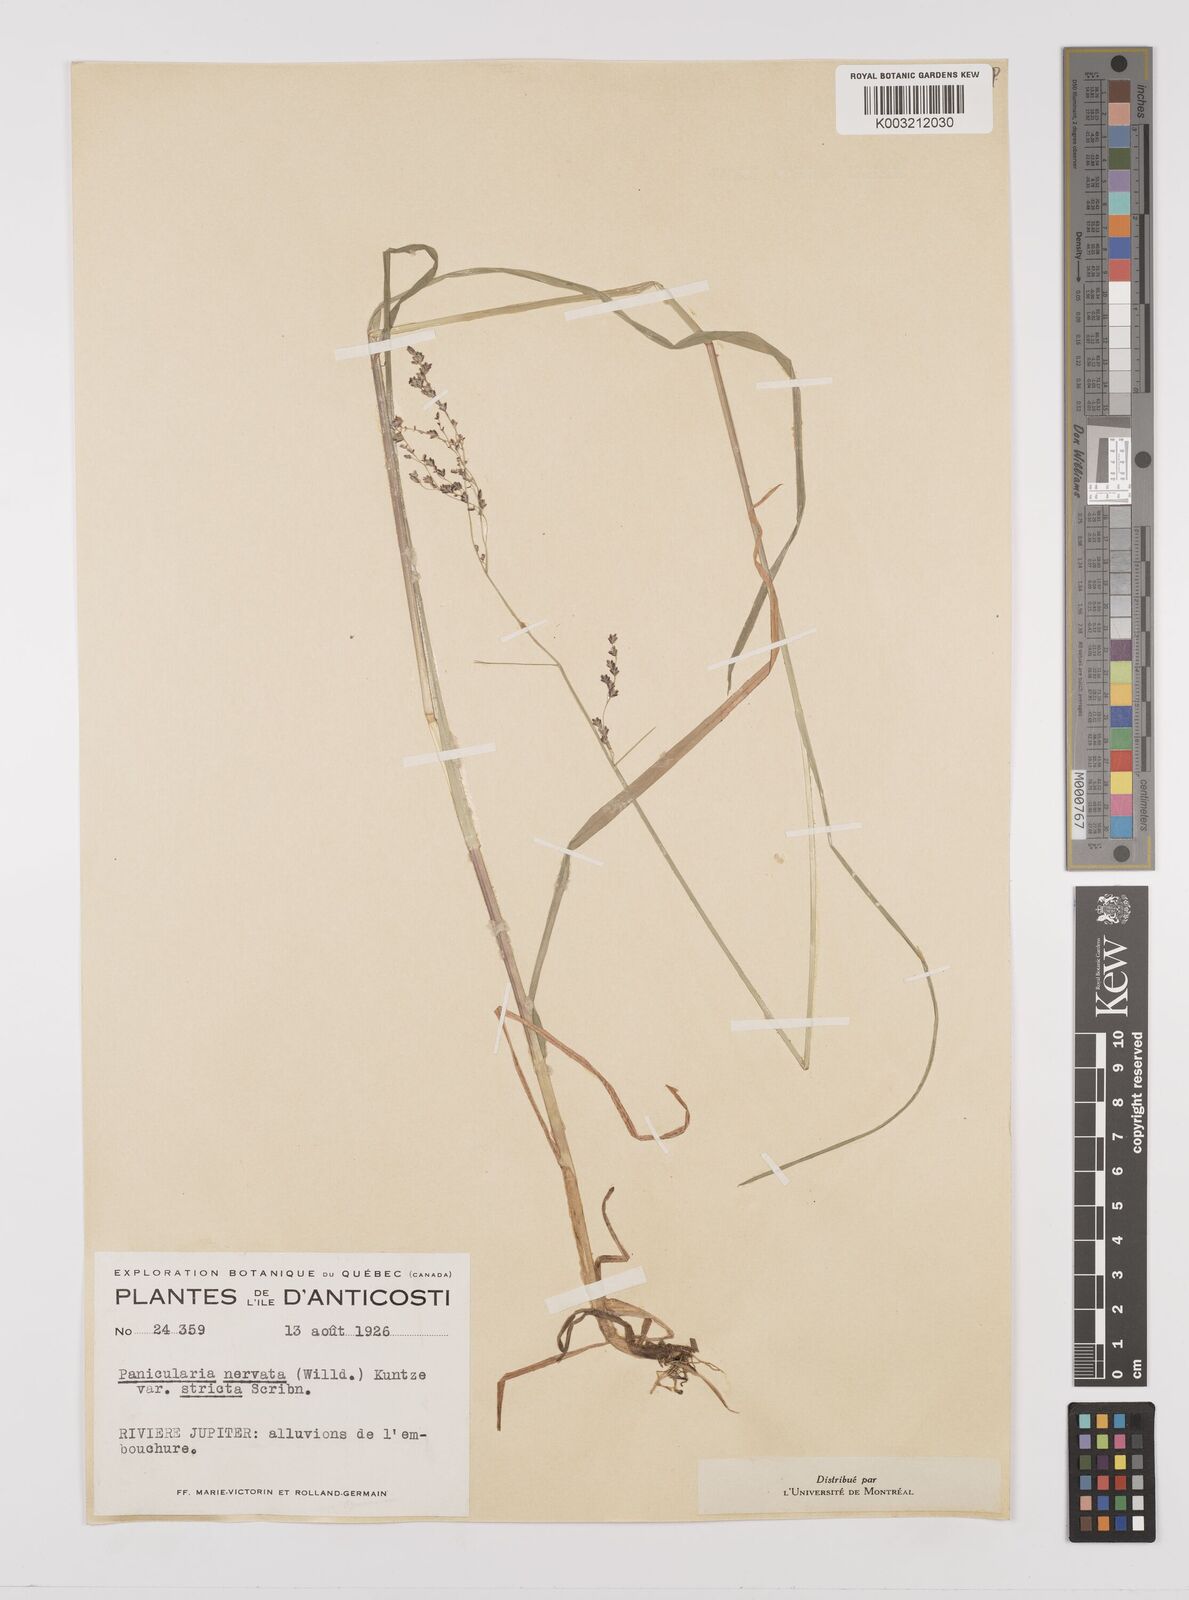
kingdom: Plantae
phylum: Tracheophyta
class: Liliopsida
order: Poales
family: Poaceae
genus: Glyceria
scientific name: Glyceria striata
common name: Fowl manna grass
